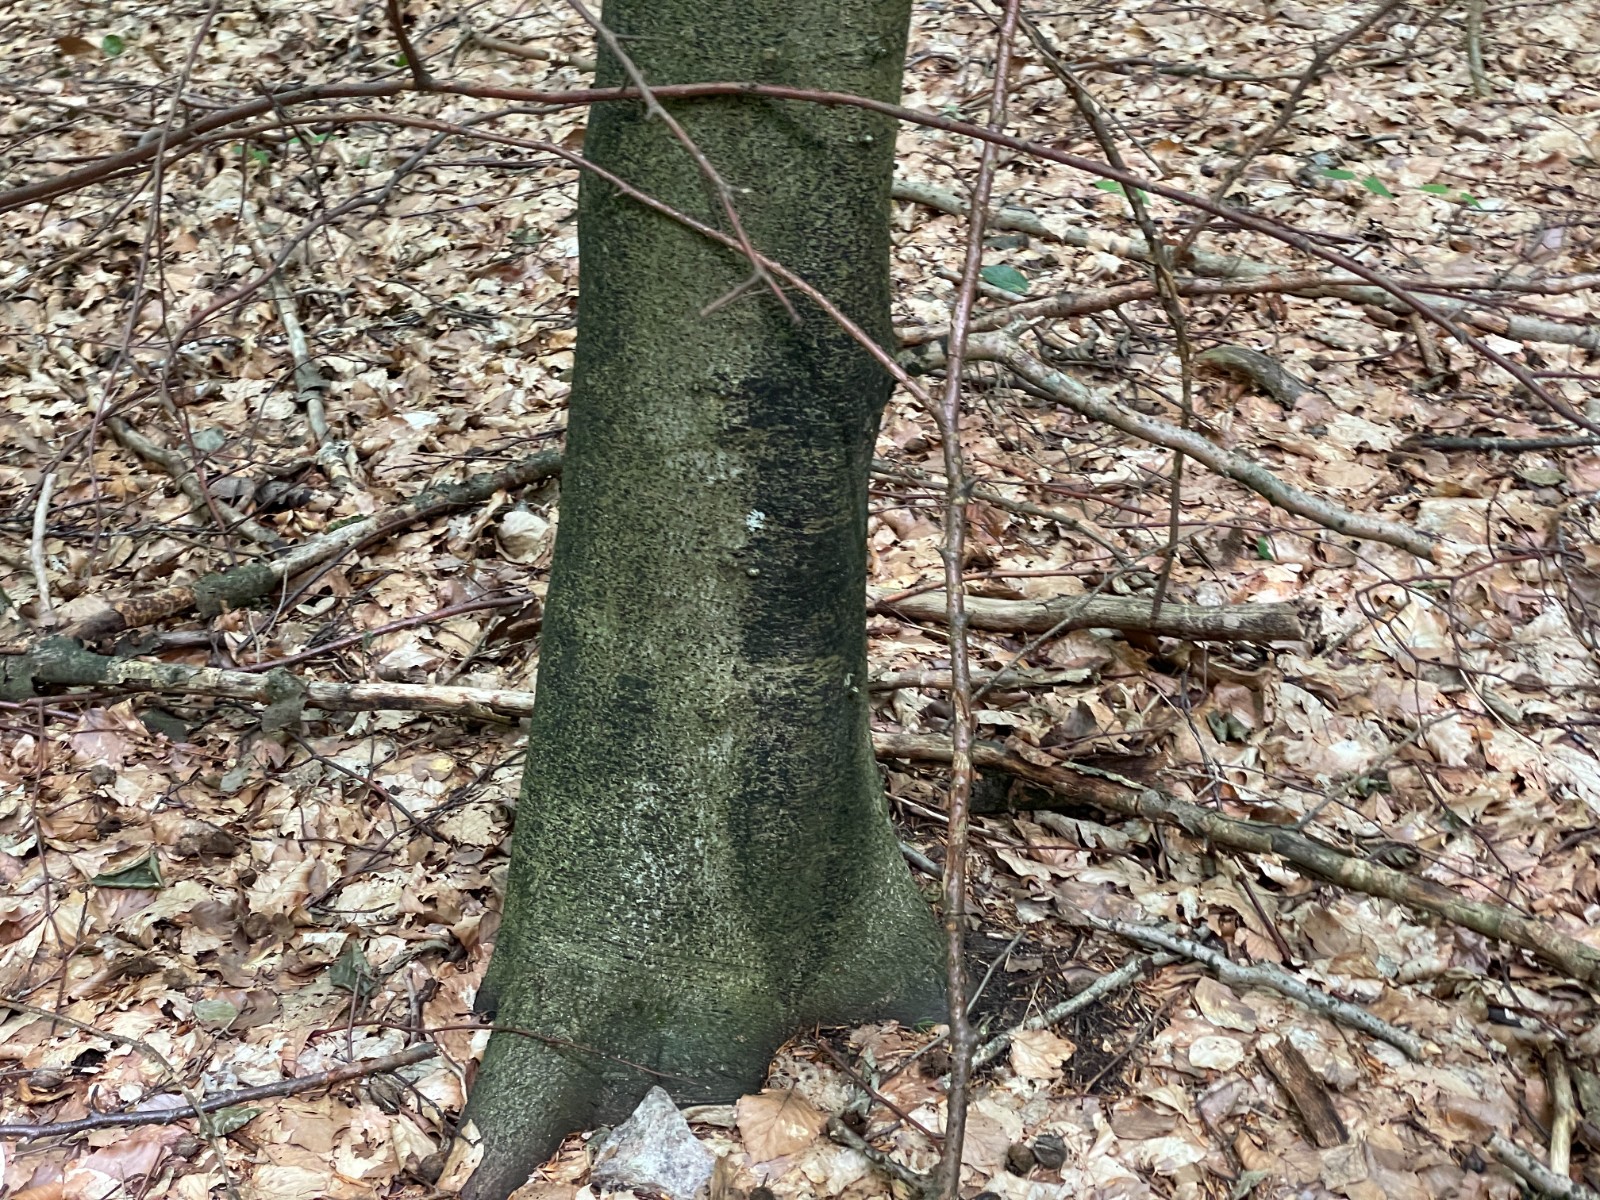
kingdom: Fungi
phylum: Ascomycota
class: Leotiomycetes
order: Rhytismatales
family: Ascodichaenaceae
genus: Ascodichaena
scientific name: Ascodichaena rugosa
